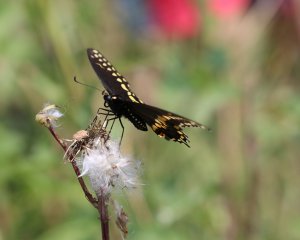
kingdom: Animalia
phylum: Arthropoda
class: Insecta
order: Lepidoptera
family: Papilionidae
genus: Papilio
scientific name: Papilio polyxenes
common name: Black Swallowtail
